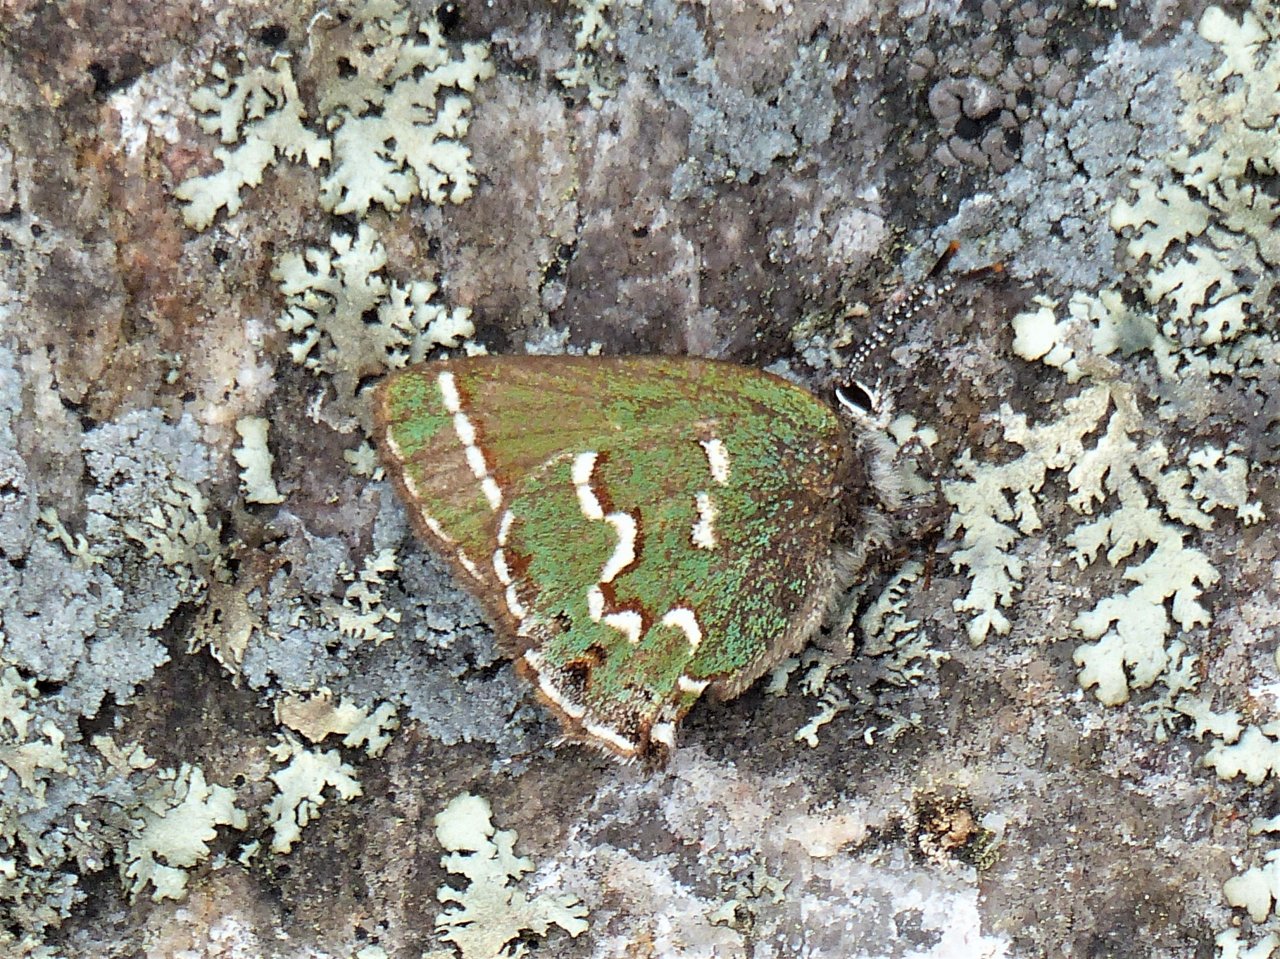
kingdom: Animalia
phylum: Arthropoda
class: Insecta
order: Lepidoptera
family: Lycaenidae
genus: Mitoura
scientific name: Mitoura gryneus
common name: Juniper Hairstreak
